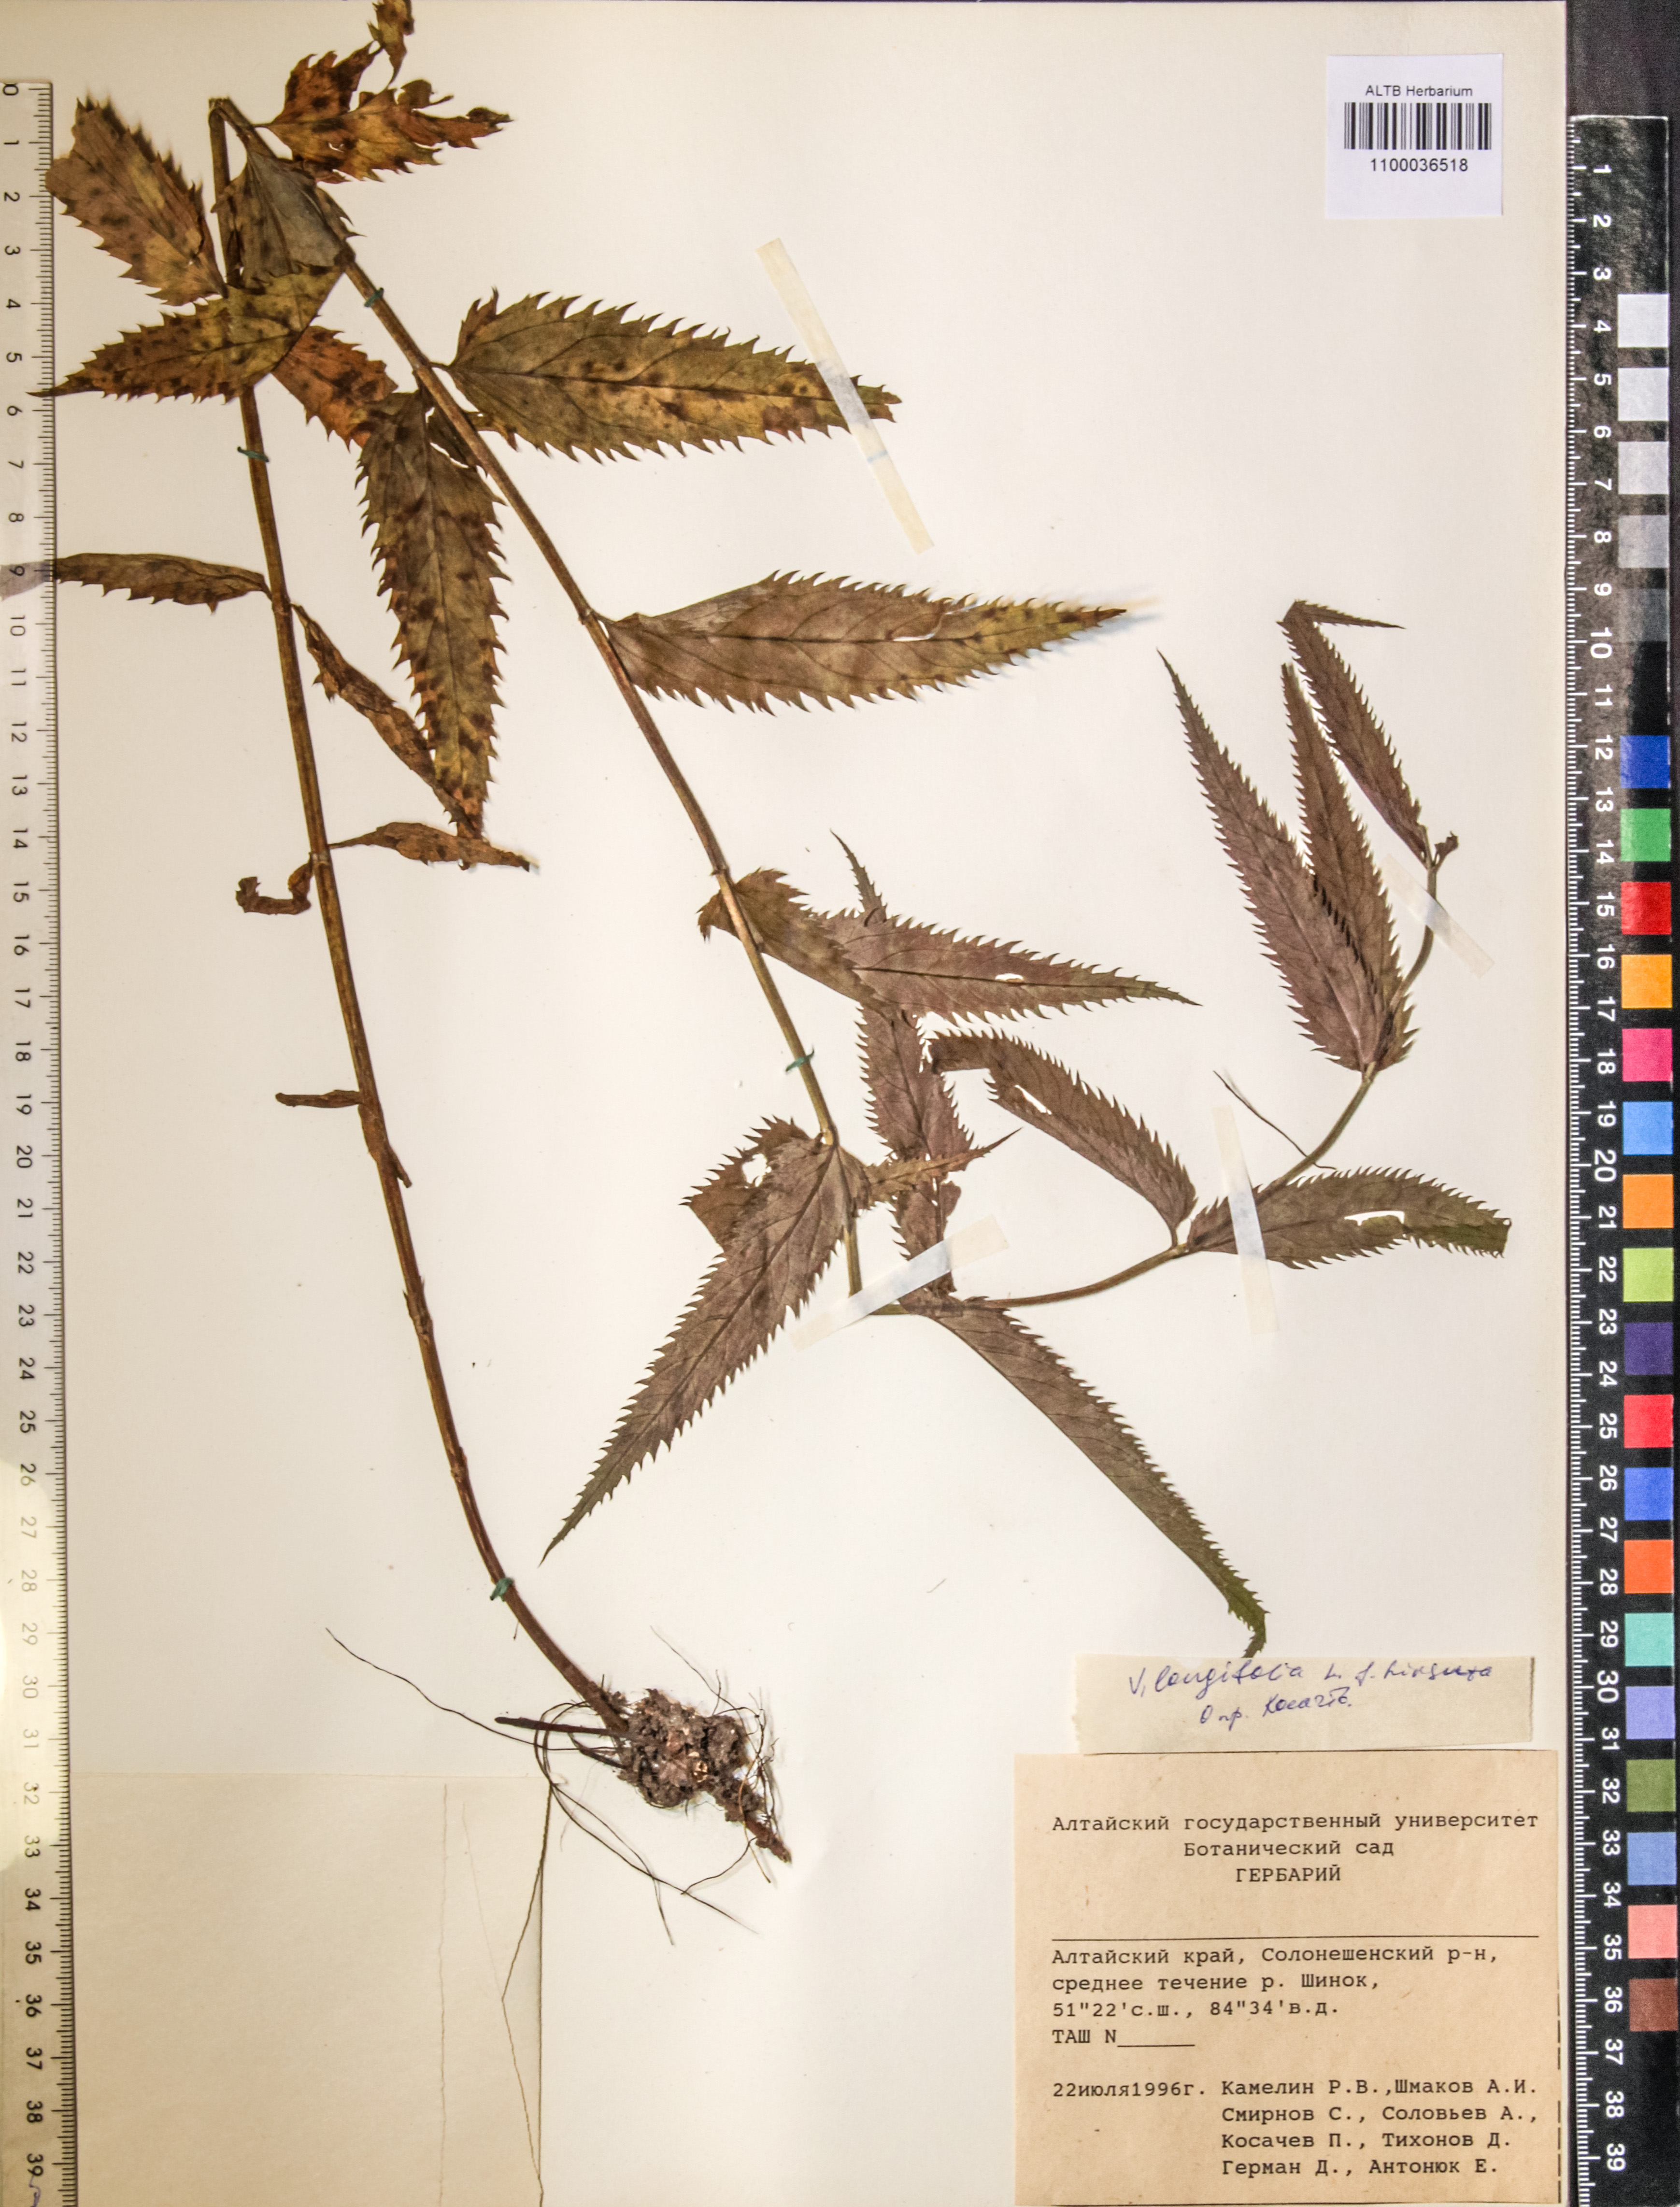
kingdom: Plantae
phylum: Tracheophyta
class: Magnoliopsida
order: Lamiales
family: Plantaginaceae
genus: Veronica
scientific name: Veronica longifolia
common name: Garden speedwell
